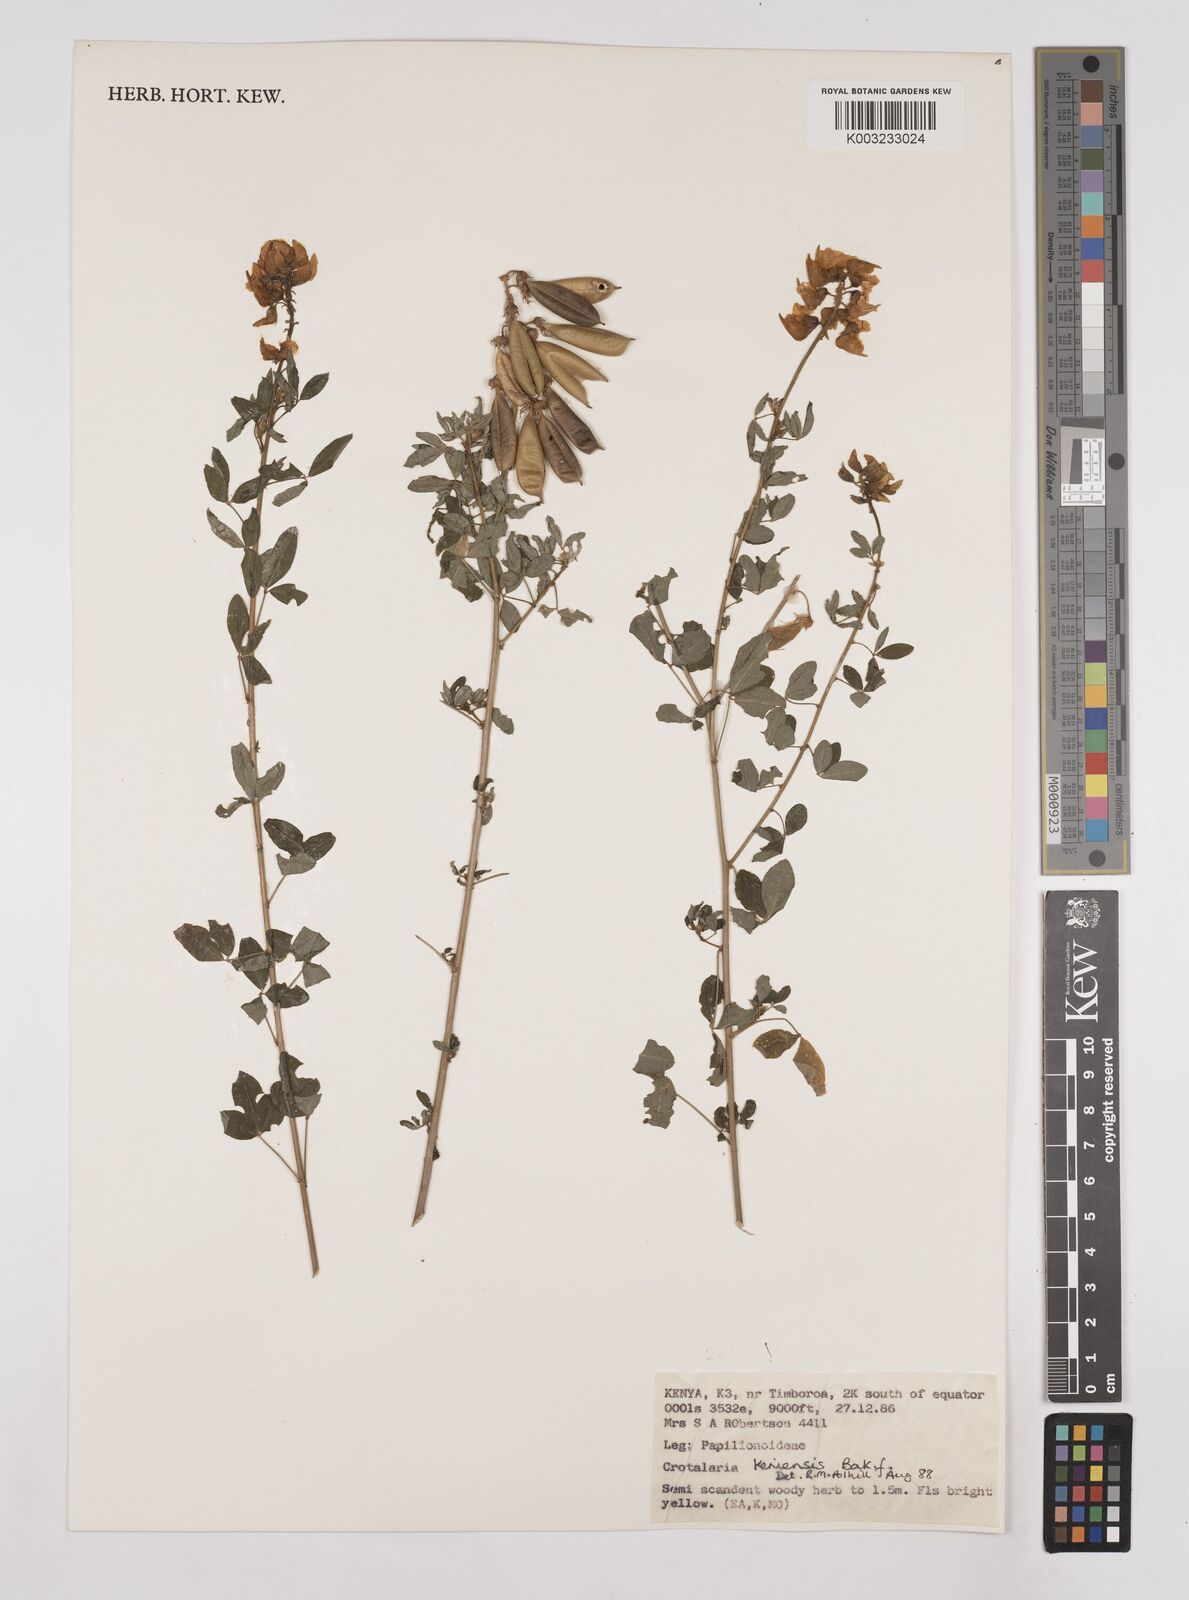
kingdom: Plantae
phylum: Tracheophyta
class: Magnoliopsida
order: Fabales
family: Fabaceae
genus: Crotalaria
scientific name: Crotalaria keniensis
